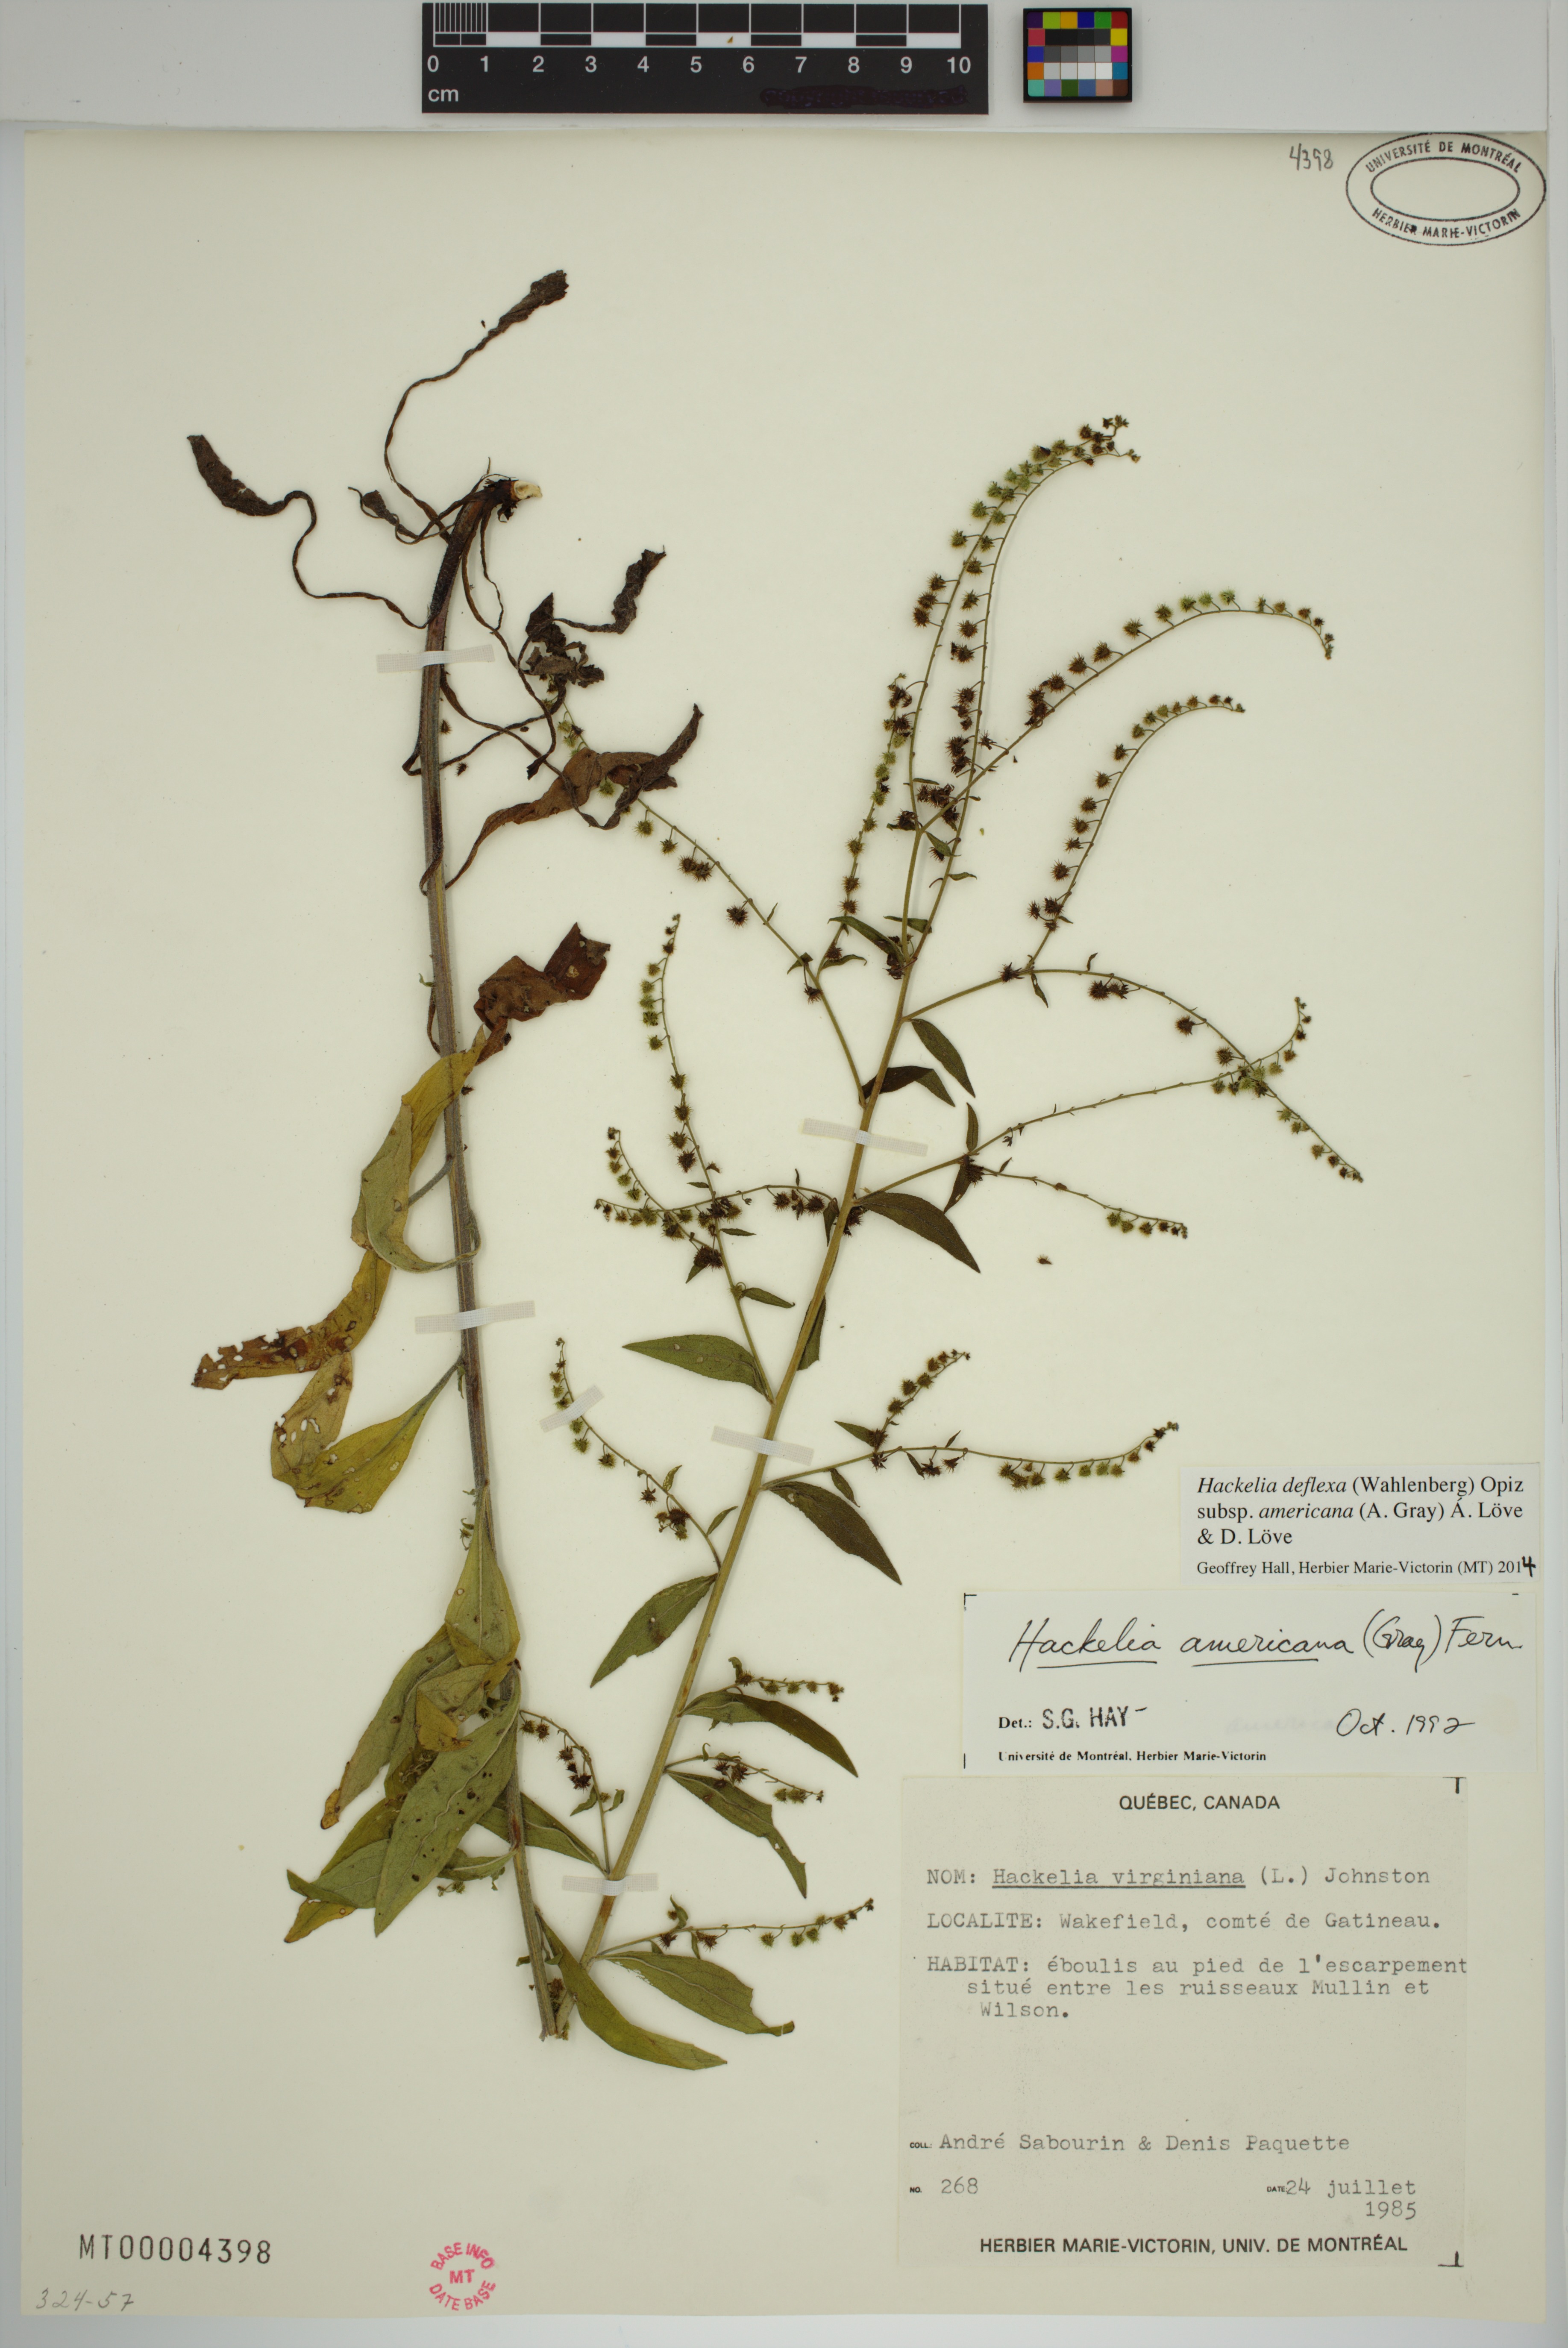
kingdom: Plantae
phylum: Tracheophyta
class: Magnoliopsida
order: Boraginales
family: Boraginaceae
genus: Hackelia
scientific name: Hackelia deflexa
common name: Nodding stickseed
